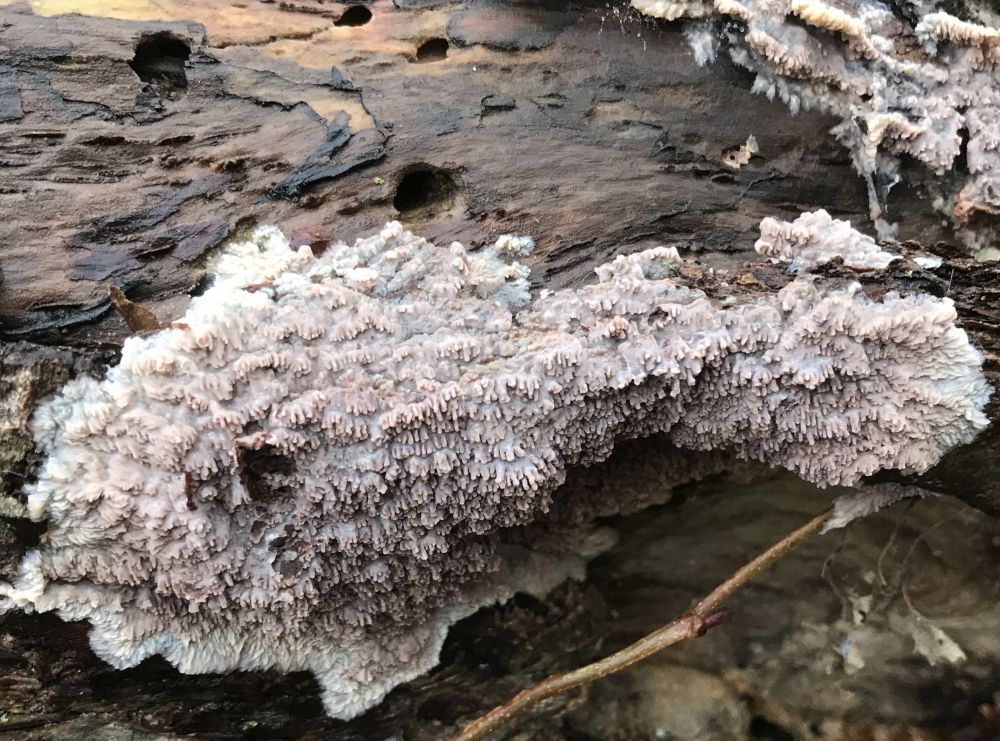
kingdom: Fungi
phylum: Basidiomycota
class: Agaricomycetes
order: Polyporales
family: Meruliaceae
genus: Phlebia
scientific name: Phlebia radiata
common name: stråle-åresvamp
